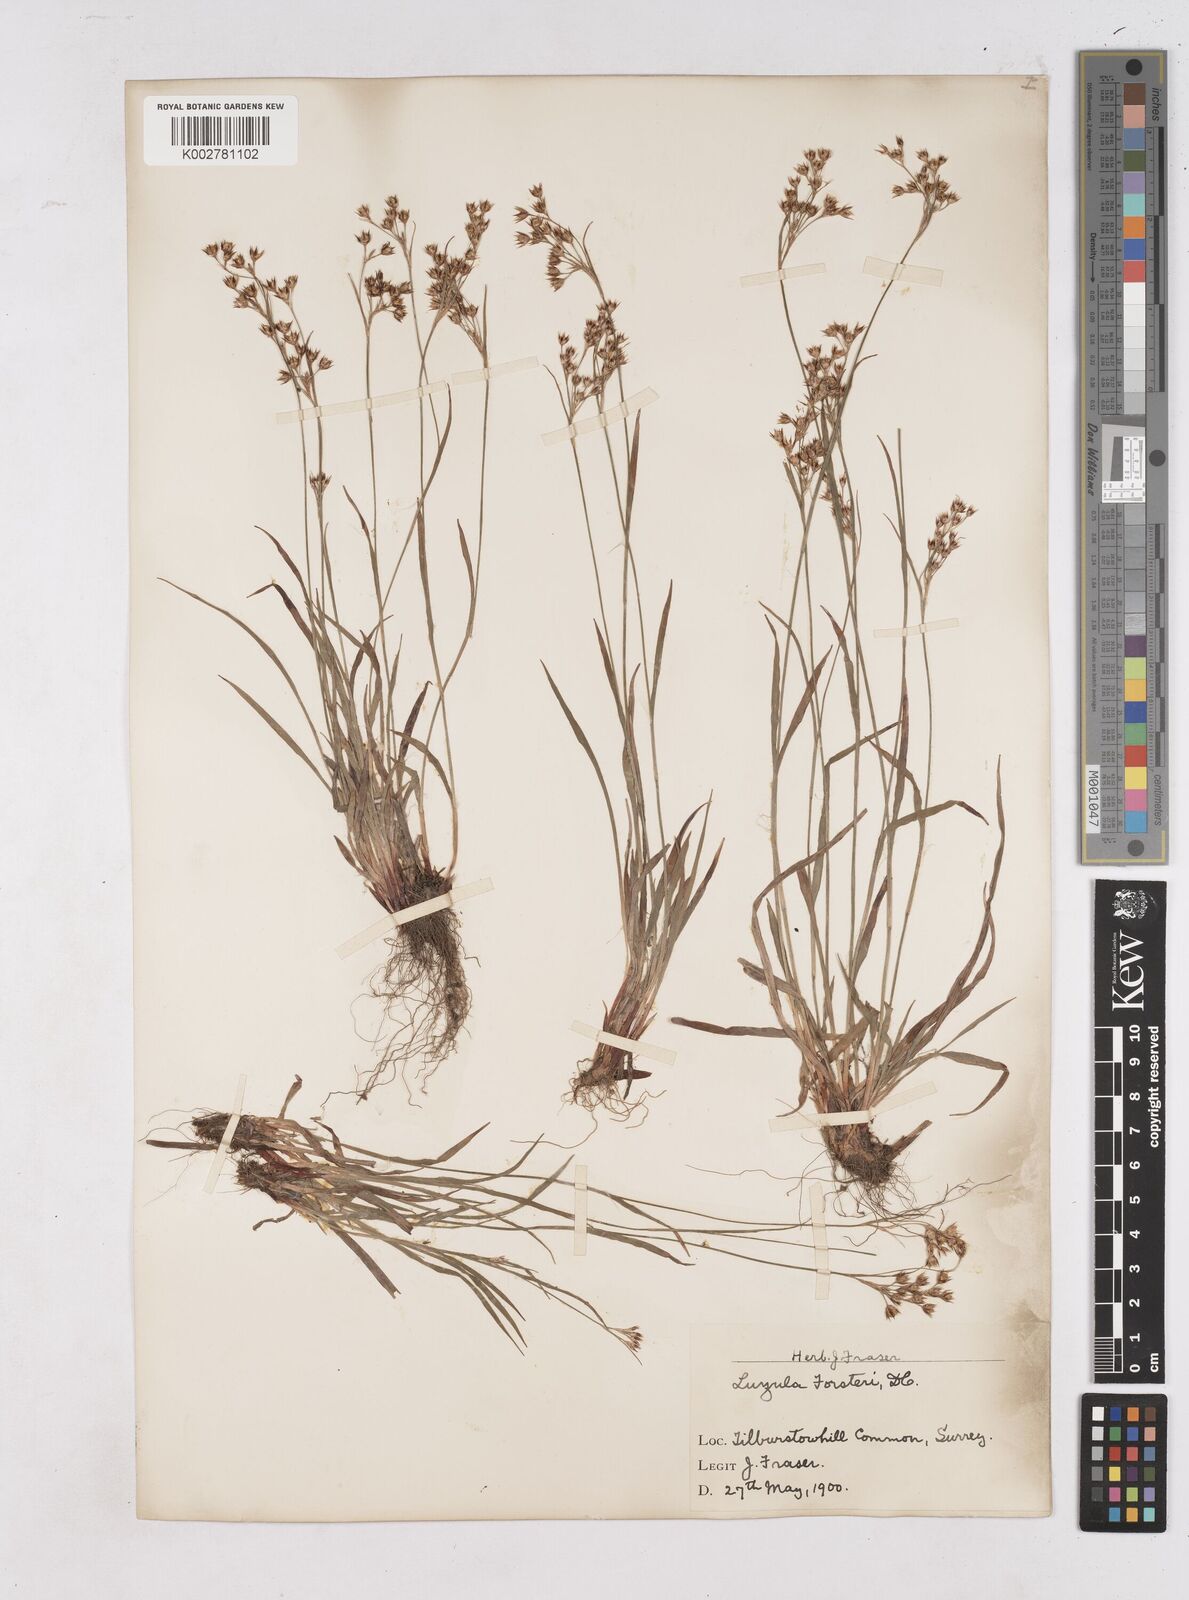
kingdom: Plantae
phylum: Tracheophyta
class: Liliopsida
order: Poales
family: Juncaceae
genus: Luzula
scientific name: Luzula forsteri
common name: Southern wood-rush
